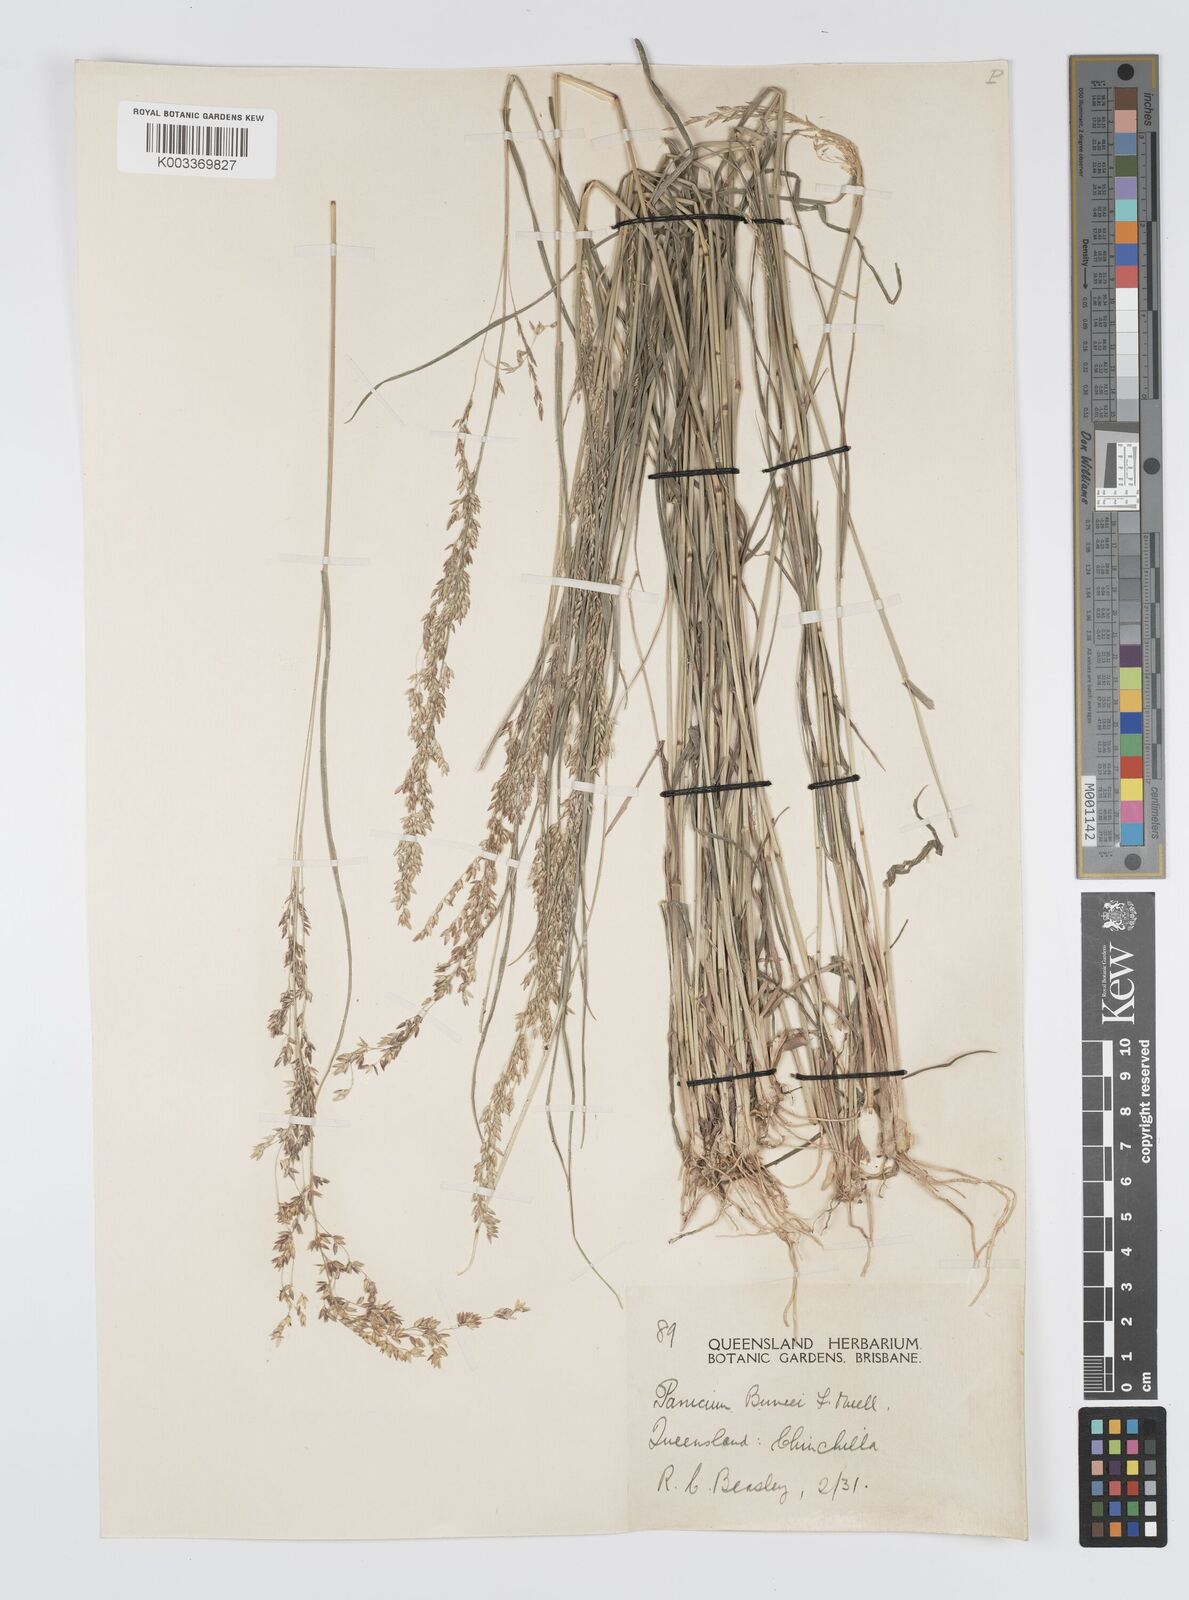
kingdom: Plantae
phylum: Tracheophyta
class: Liliopsida
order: Poales
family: Poaceae
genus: Panicum
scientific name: Panicum buncei
